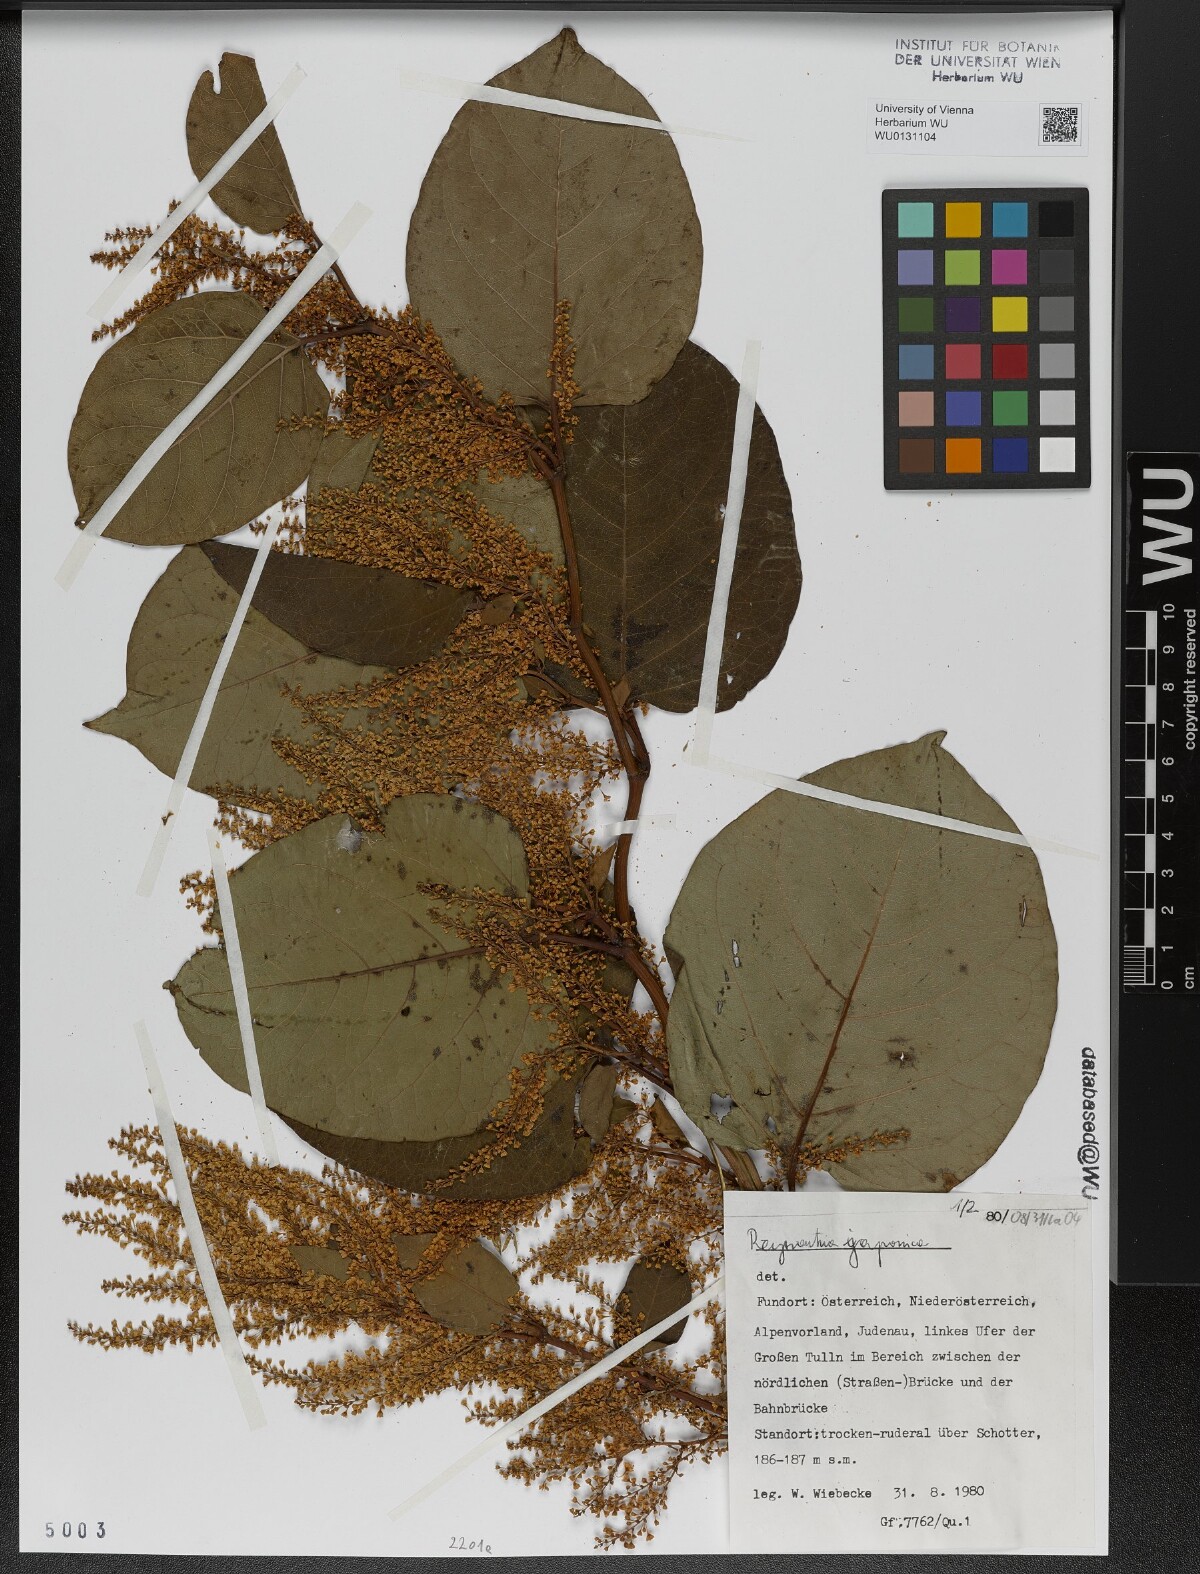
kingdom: Plantae
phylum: Tracheophyta
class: Magnoliopsida
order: Caryophyllales
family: Polygonaceae
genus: Reynoutria
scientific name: Reynoutria bohemica
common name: Bohemian knotweed
